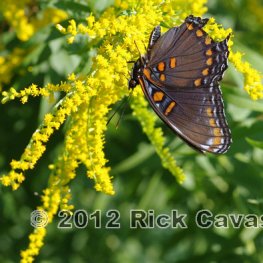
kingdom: Animalia
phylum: Arthropoda
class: Insecta
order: Lepidoptera
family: Nymphalidae
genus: Limenitis
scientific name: Limenitis astyanax
